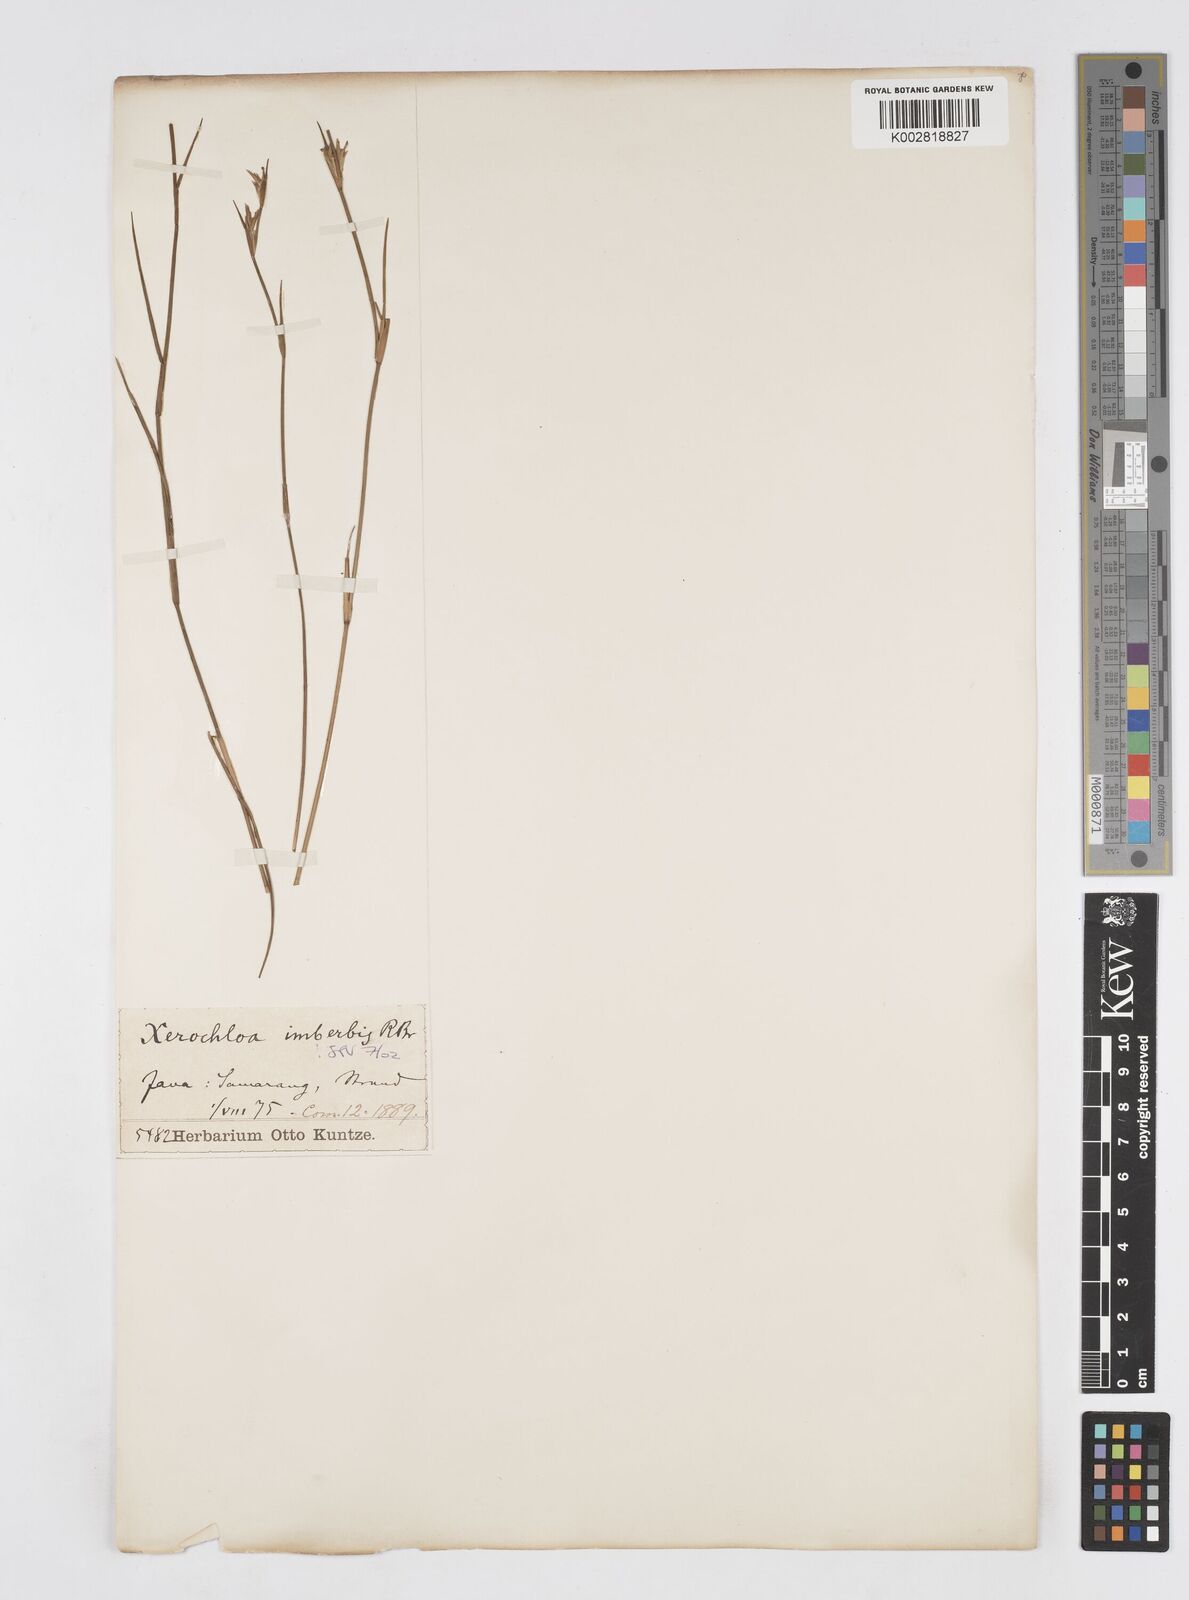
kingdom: Plantae
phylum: Tracheophyta
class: Liliopsida
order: Poales
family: Poaceae
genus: Xerochloa
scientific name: Xerochloa imberbis
